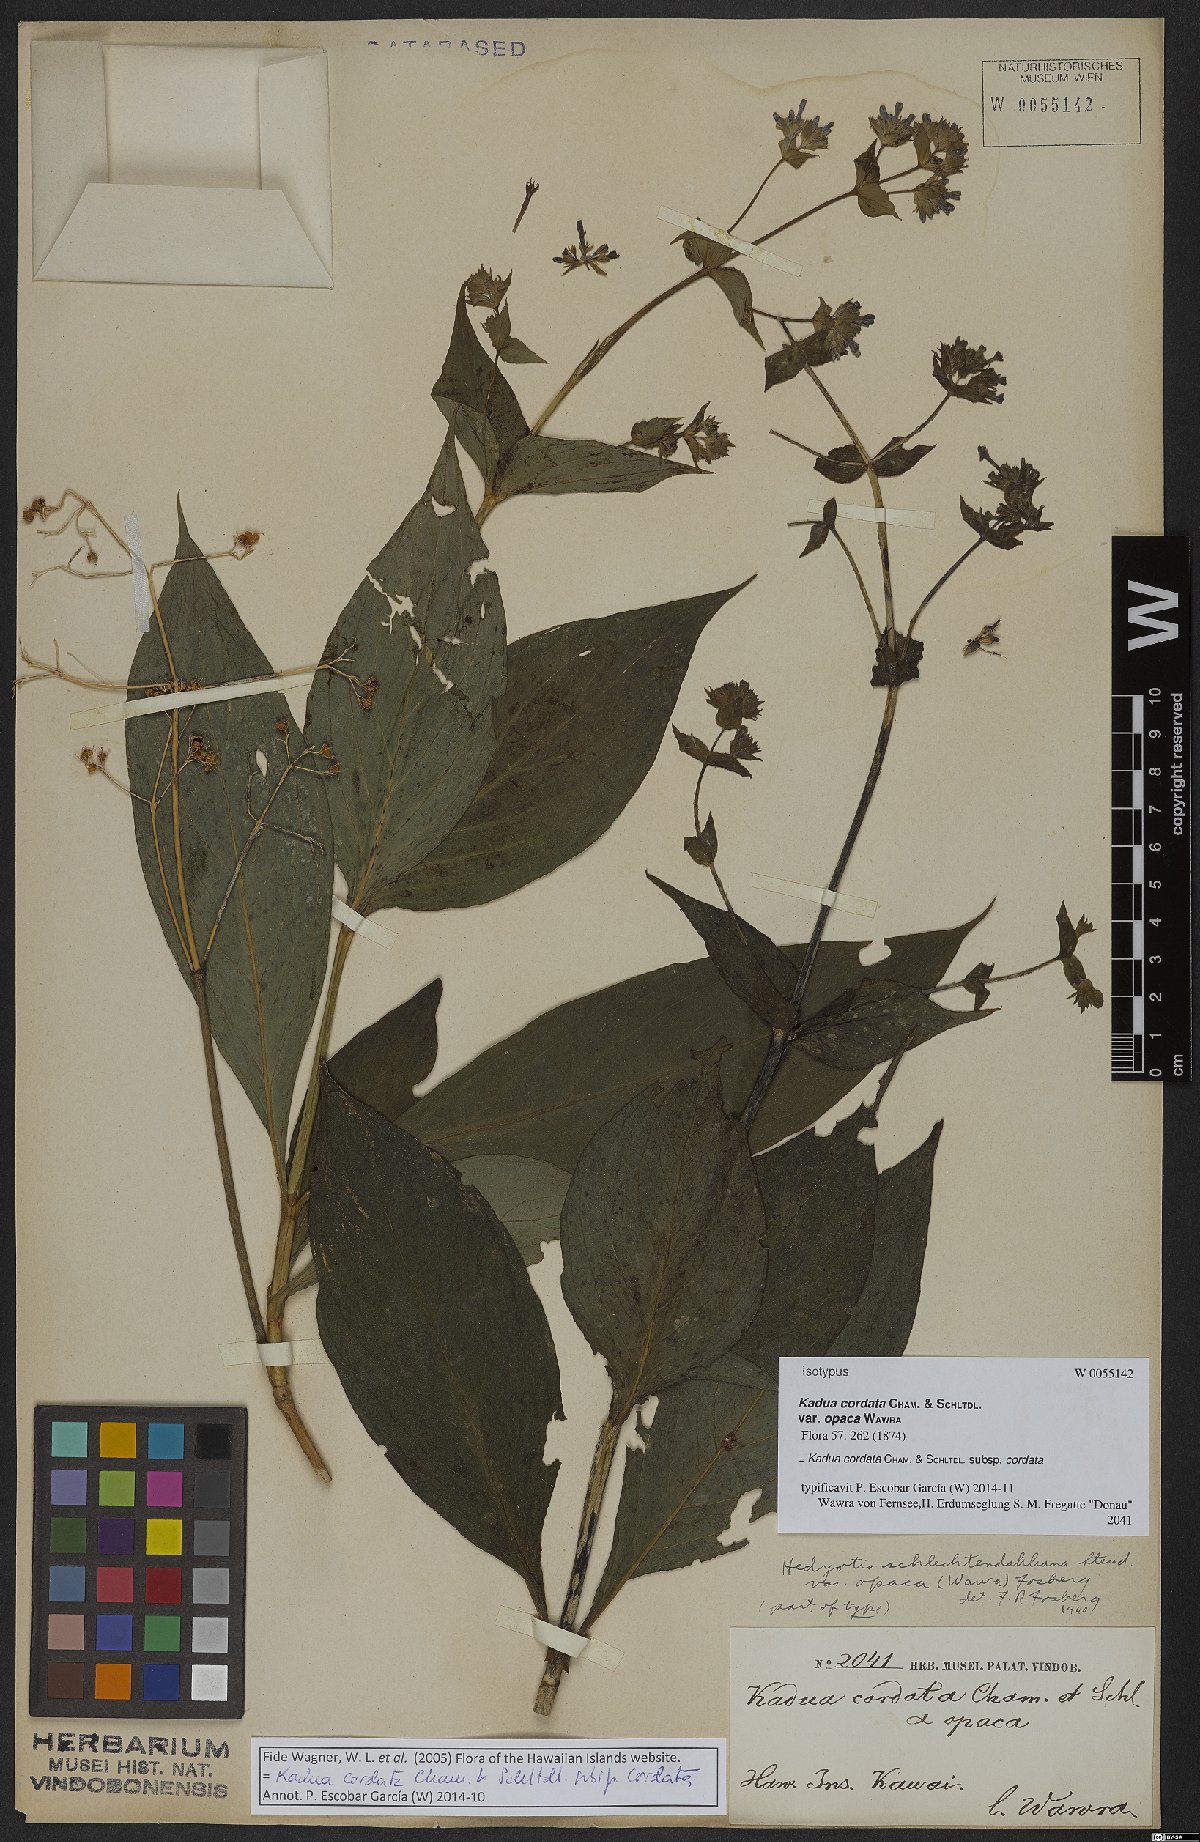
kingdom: Plantae
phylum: Tracheophyta
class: Magnoliopsida
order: Gentianales
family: Rubiaceae
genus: Kadua
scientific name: Kadua cordata
